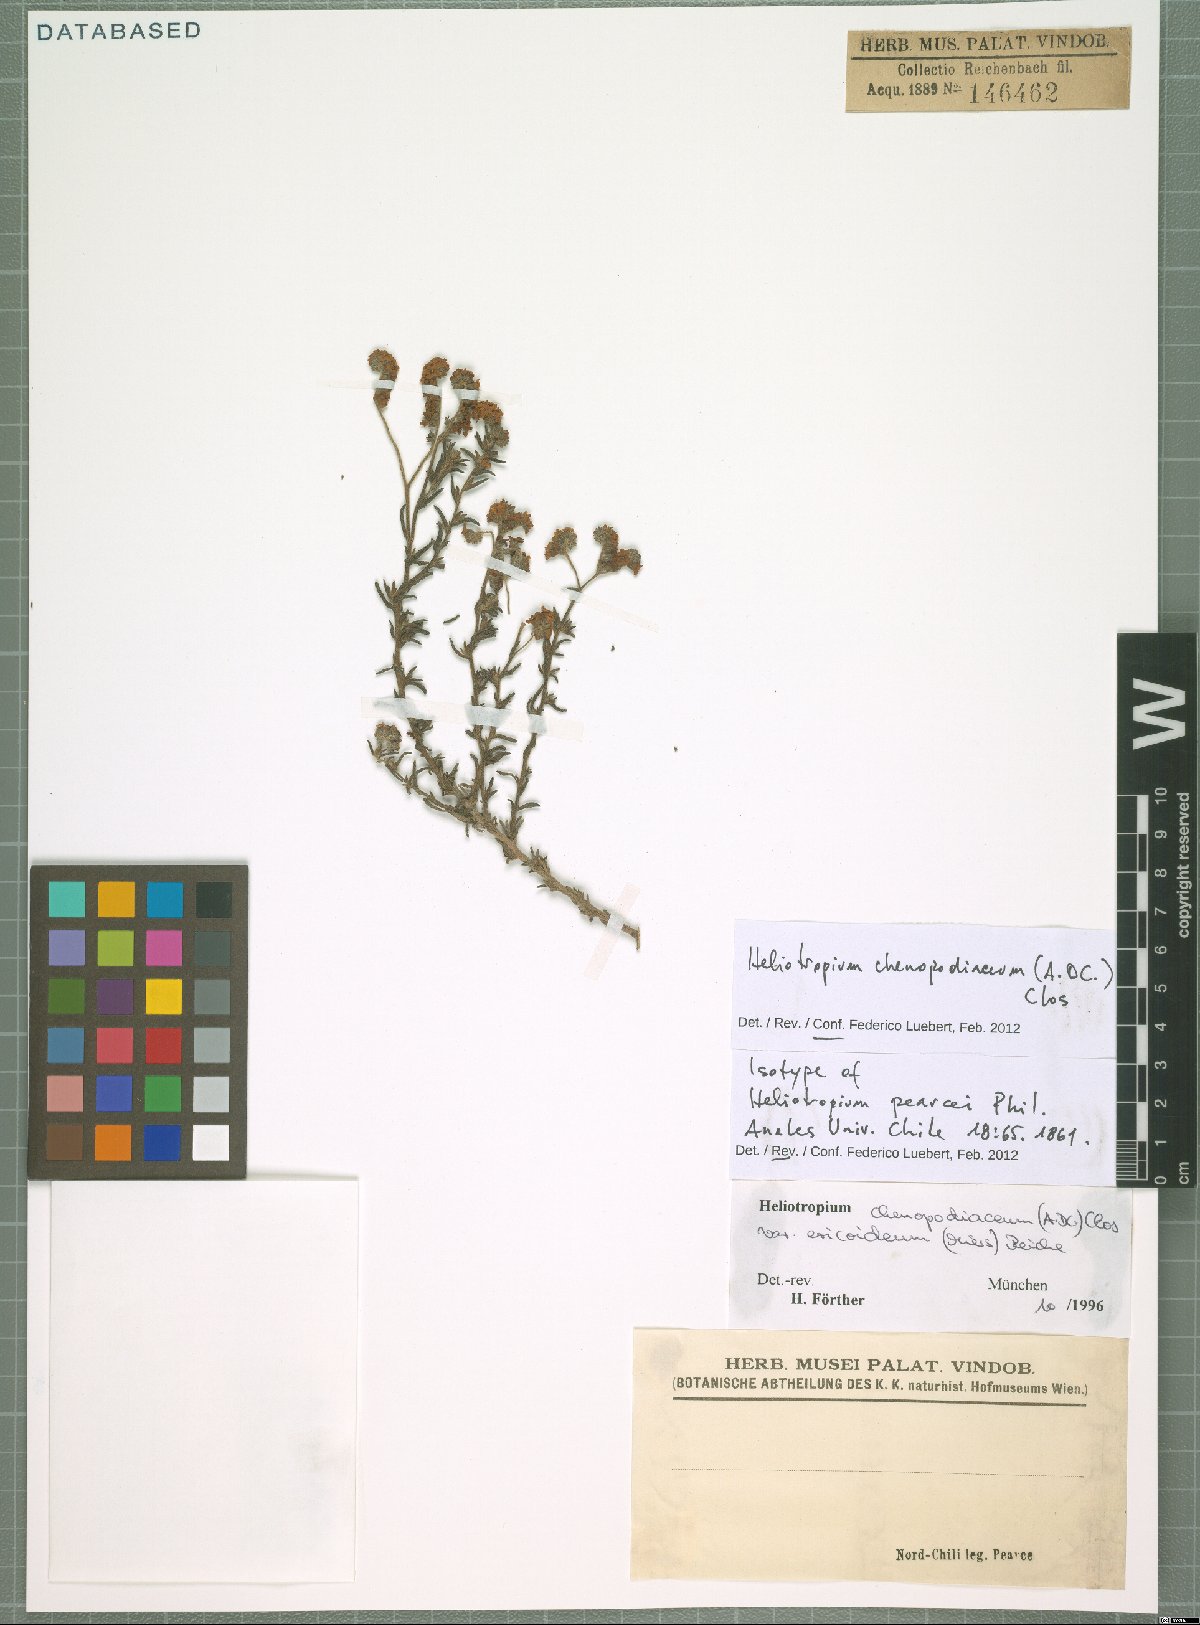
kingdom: Plantae
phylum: Tracheophyta
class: Magnoliopsida
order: Boraginales
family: Heliotropiaceae
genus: Heliotropium
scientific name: Heliotropium chenopodiaceum
